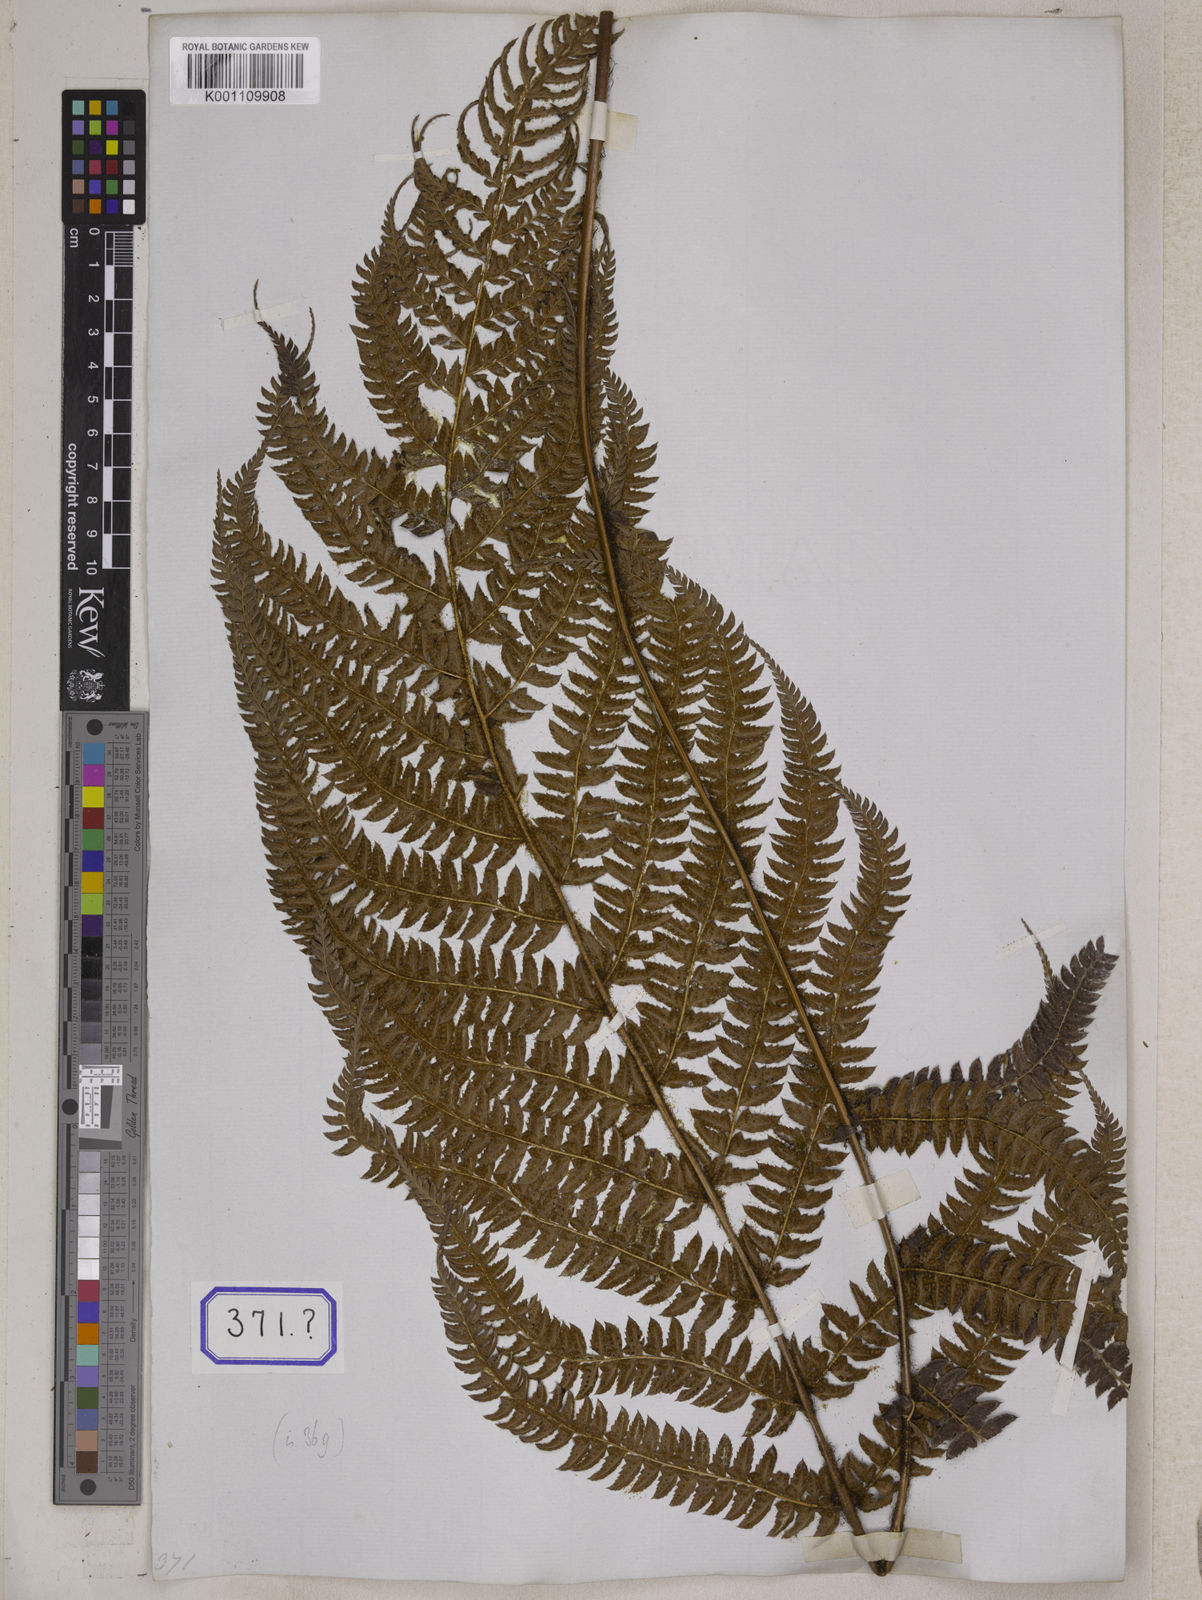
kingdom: Plantae
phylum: Tracheophyta
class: Polypodiopsida
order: Polypodiales
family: Dryopteridaceae
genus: Polystichum
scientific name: Polystichum longipaleatum
